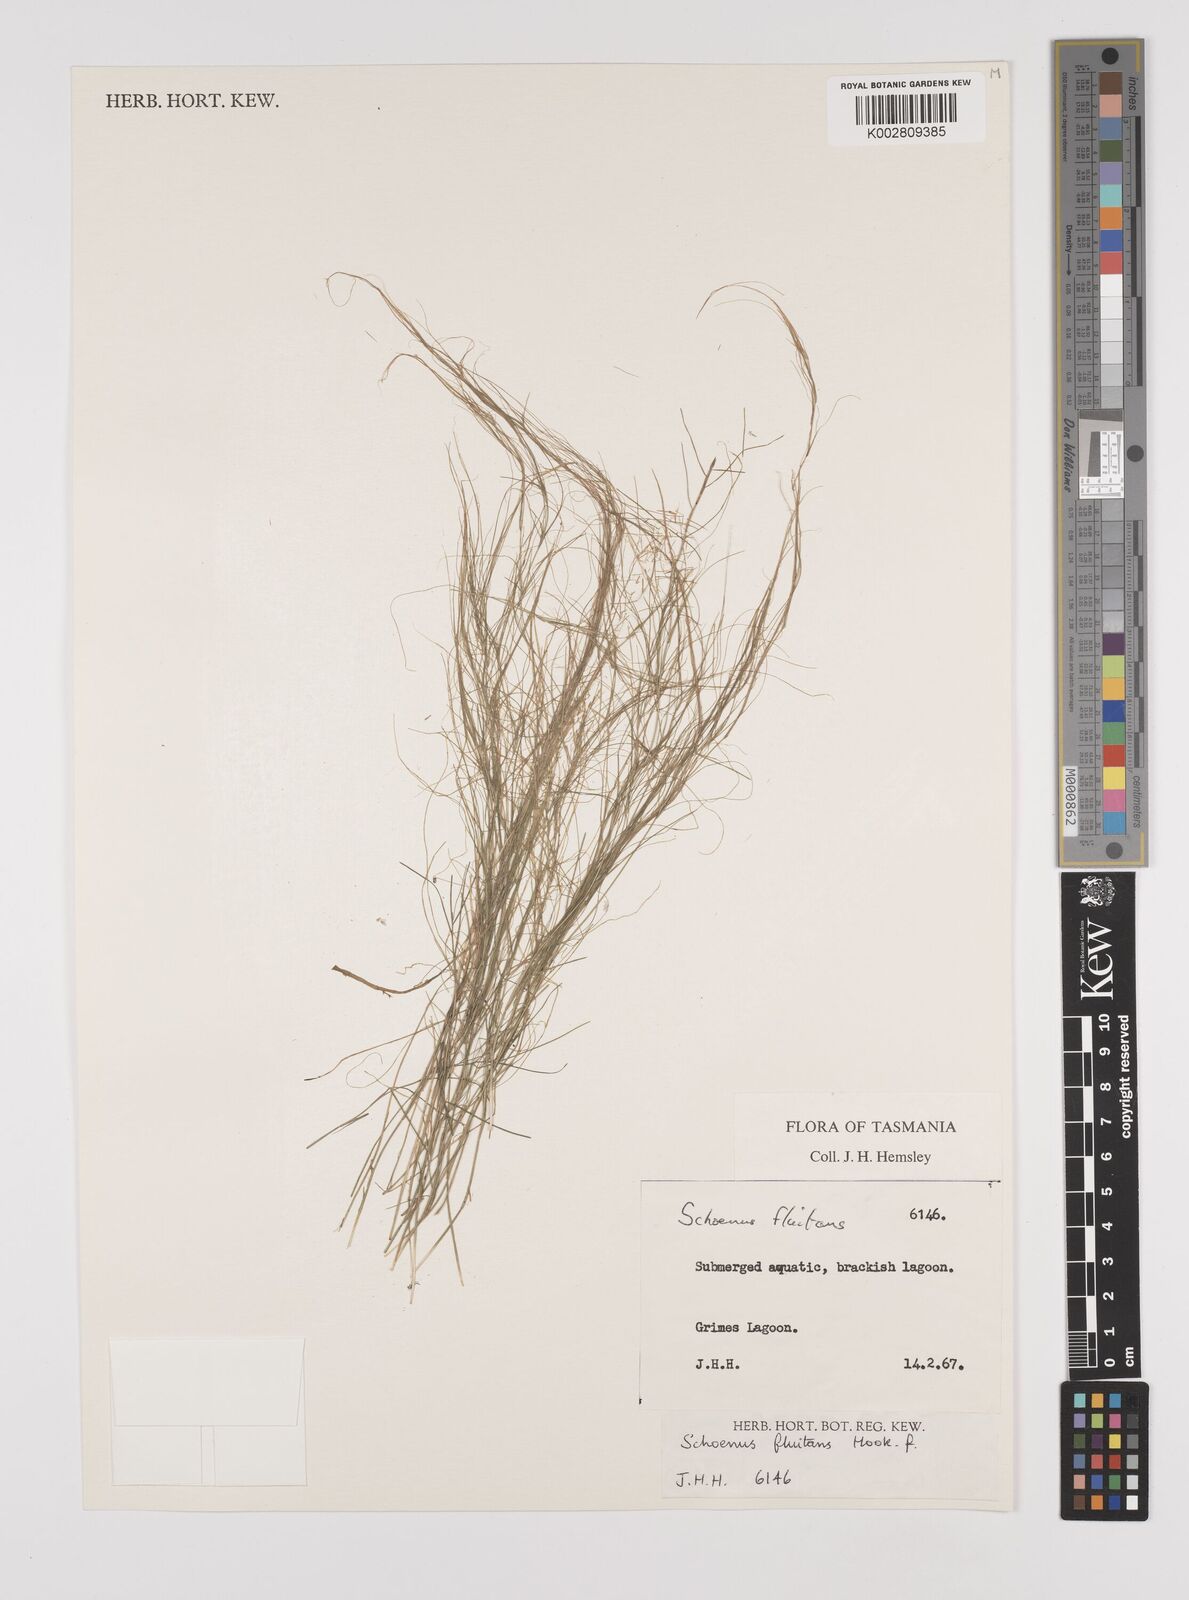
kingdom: Plantae
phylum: Tracheophyta
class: Liliopsida
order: Poales
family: Cyperaceae
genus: Schoenus
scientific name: Schoenus fluitans
